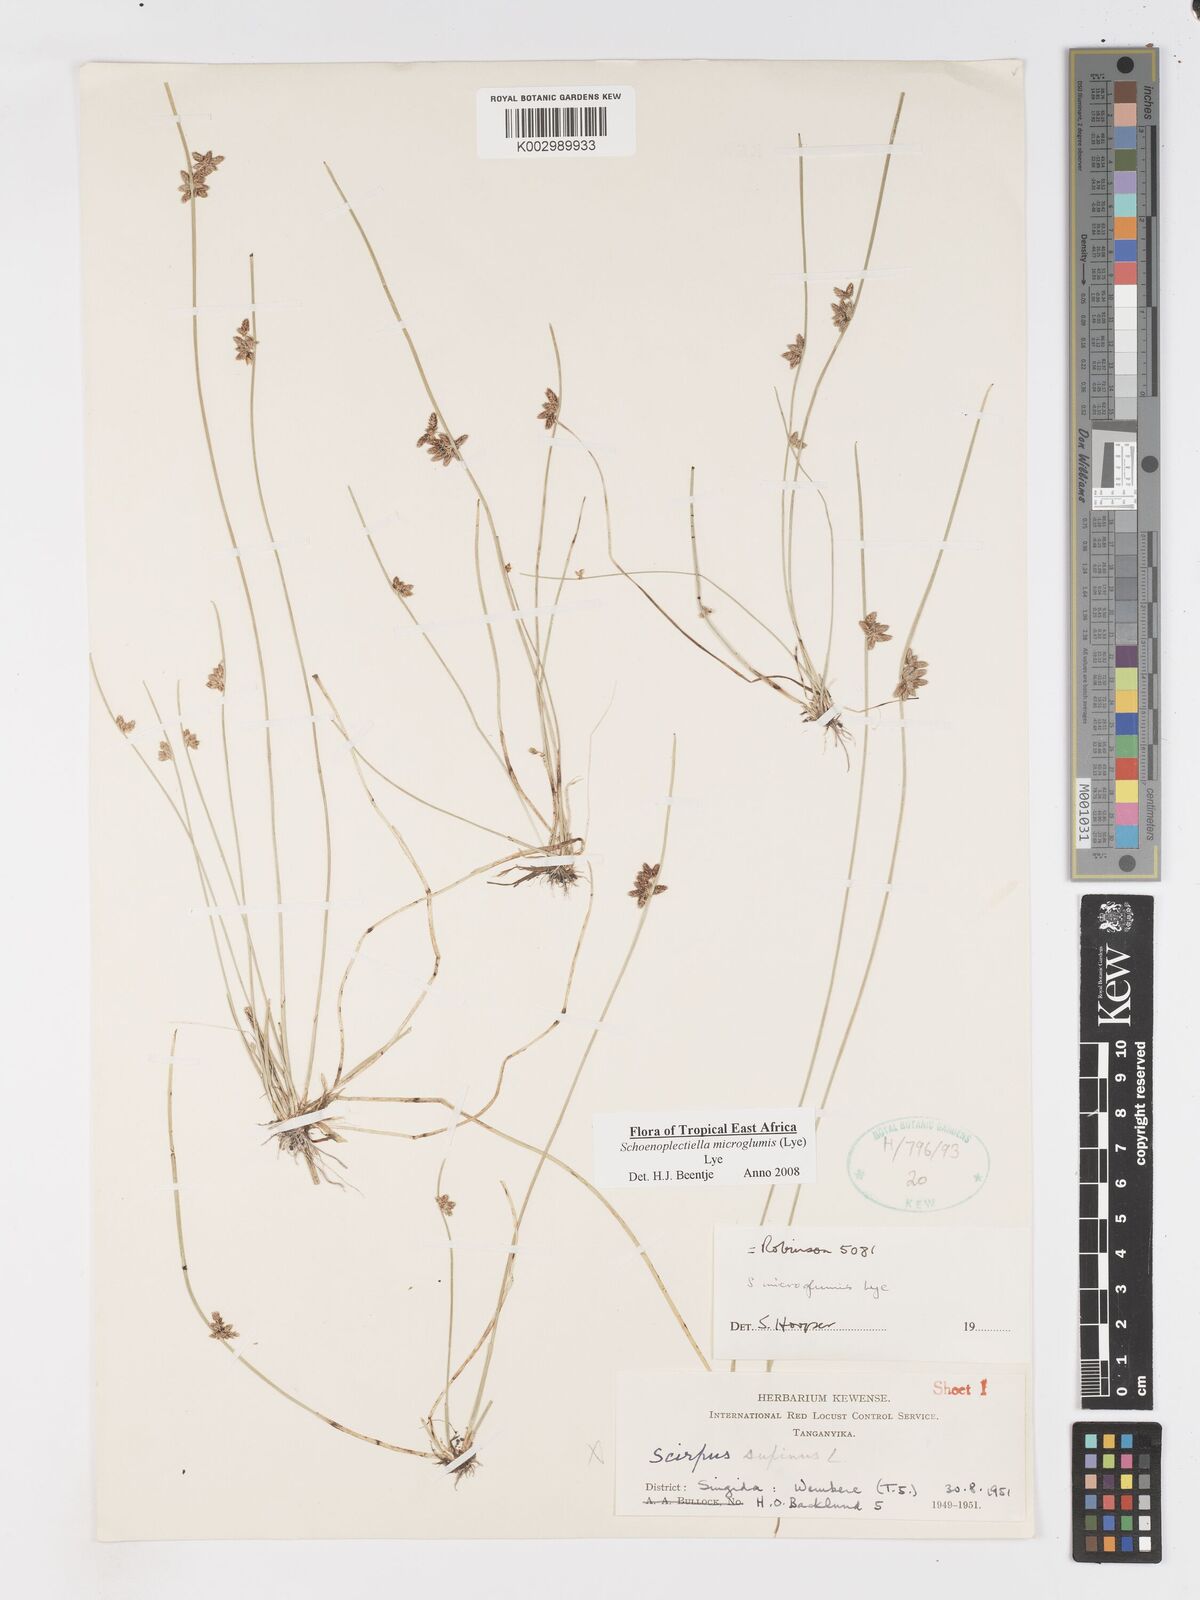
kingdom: Plantae
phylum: Tracheophyta
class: Liliopsida
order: Poales
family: Cyperaceae
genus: Schoenoplectiella
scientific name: Schoenoplectiella microglumis
